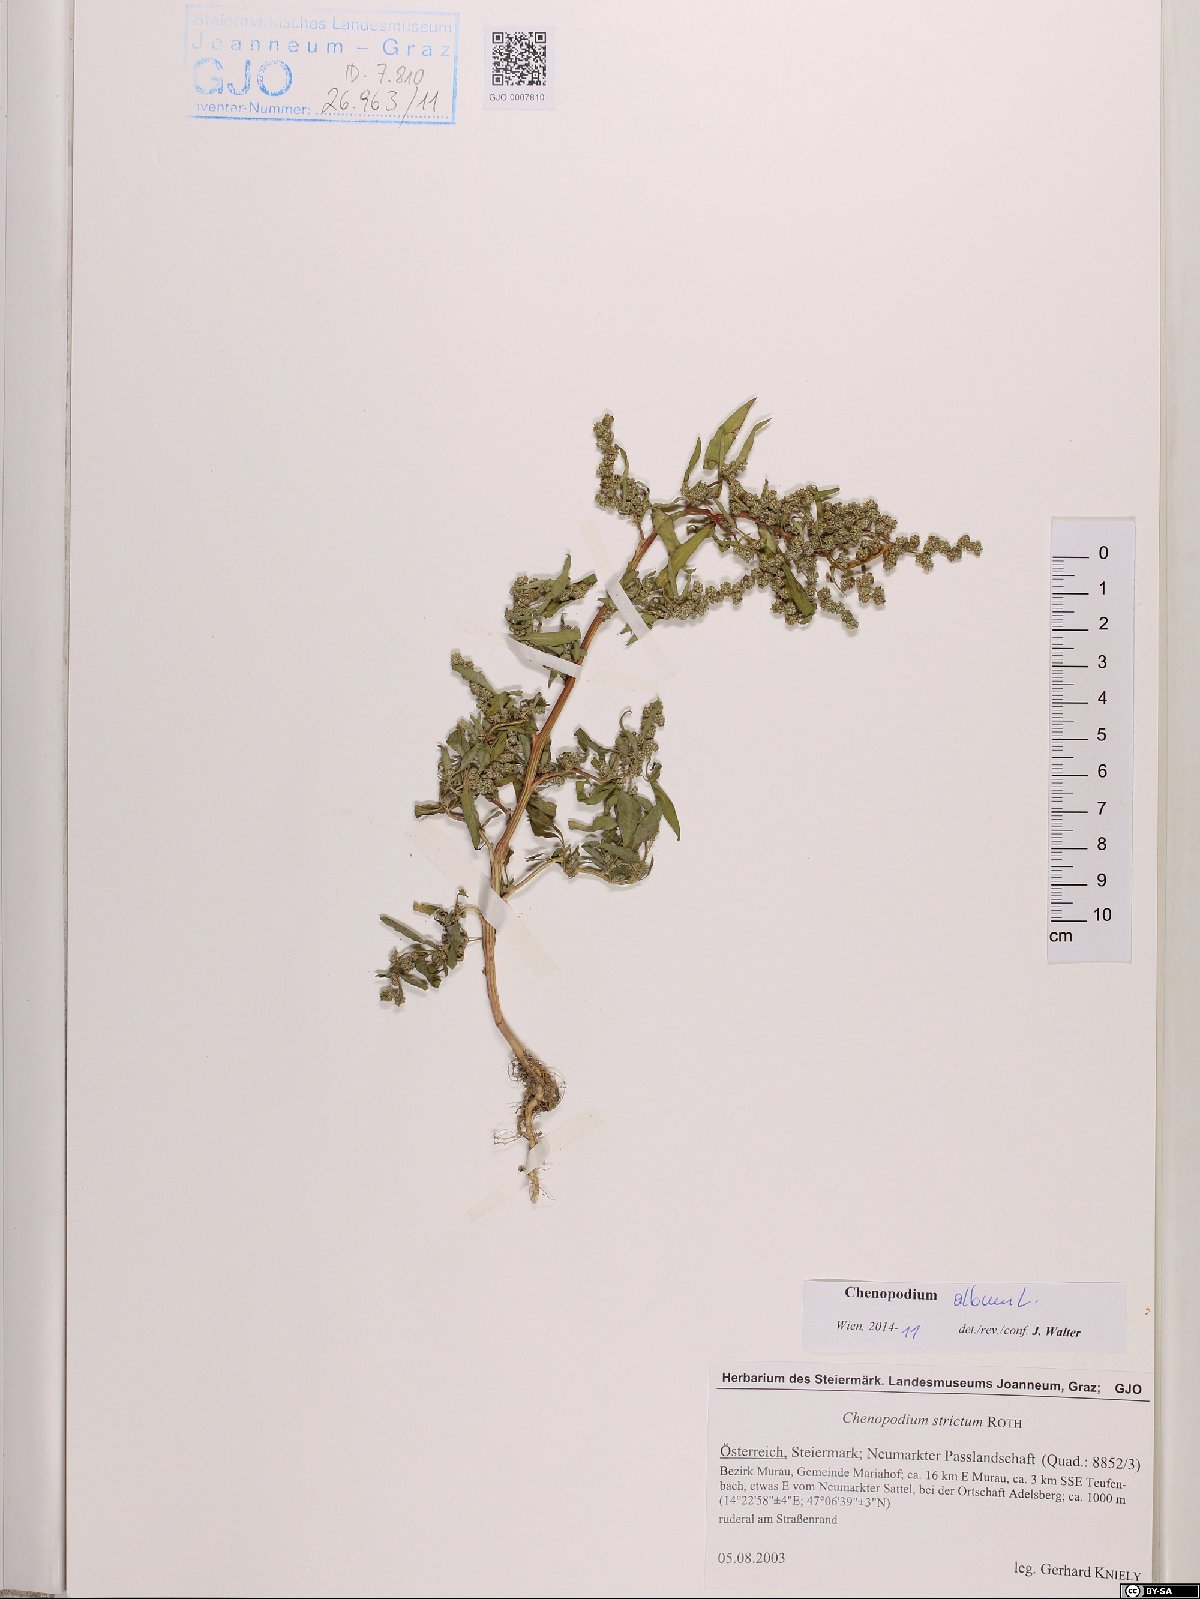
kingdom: Plantae
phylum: Tracheophyta
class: Magnoliopsida
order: Caryophyllales
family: Amaranthaceae
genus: Chenopodium
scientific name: Chenopodium album
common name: Fat-hen
